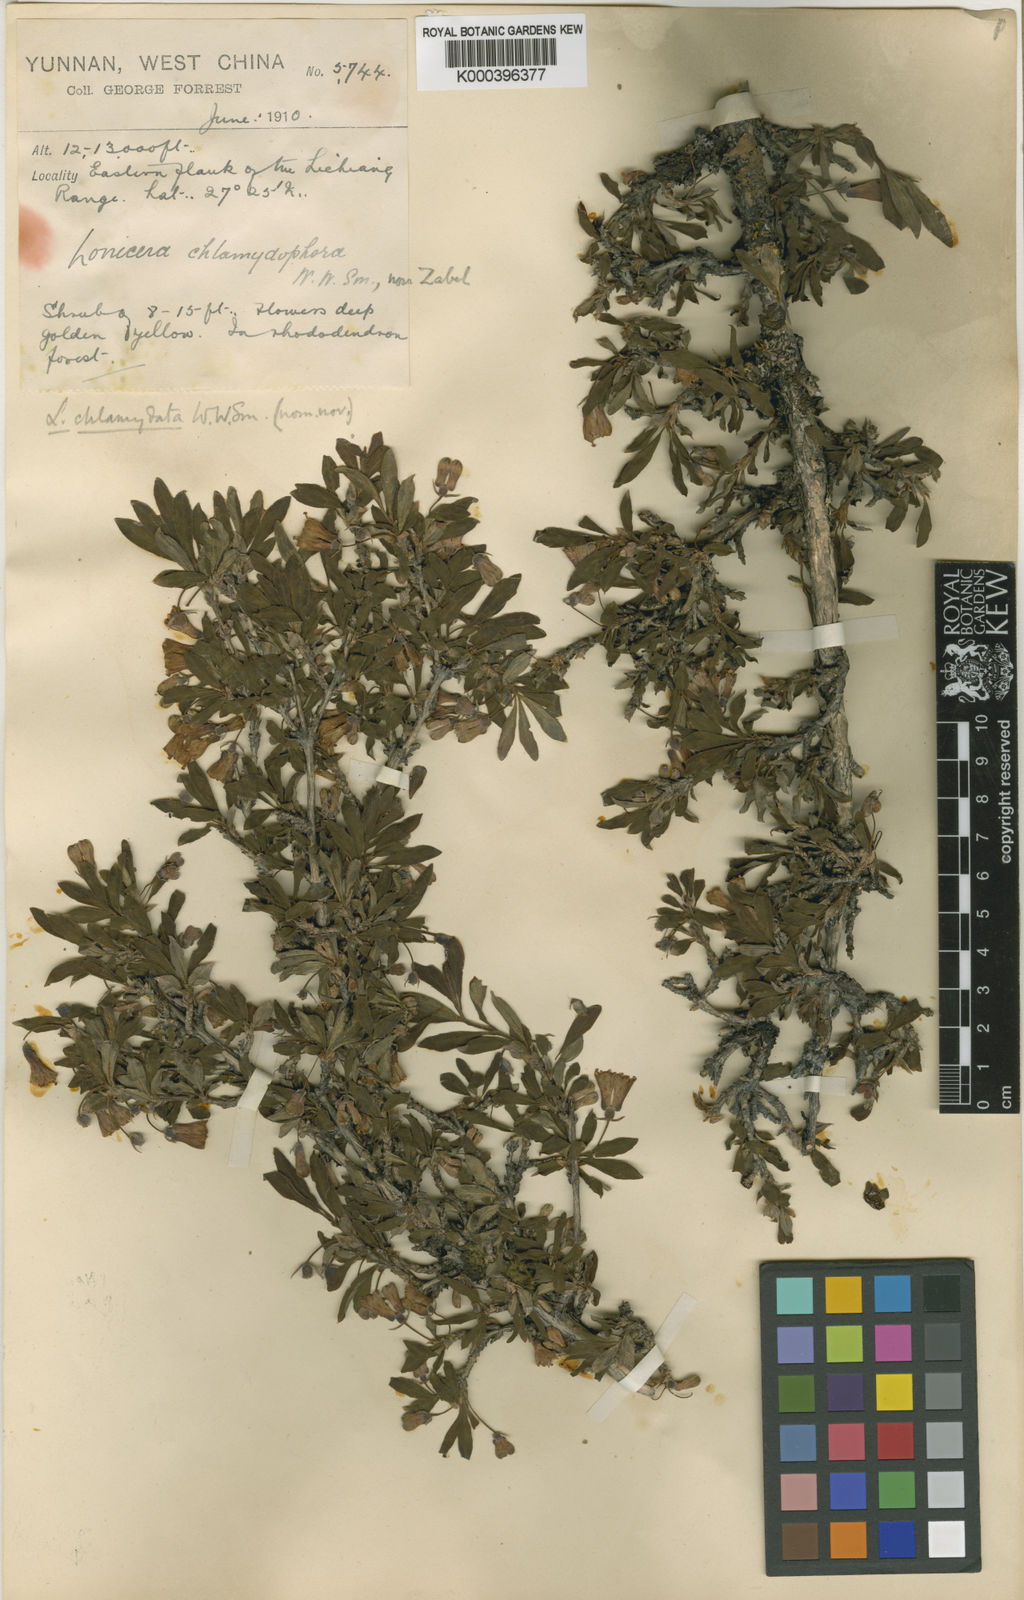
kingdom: Plantae
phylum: Tracheophyta
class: Magnoliopsida
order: Dipsacales
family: Caprifoliaceae
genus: Lonicera
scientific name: Lonicera tangutica
